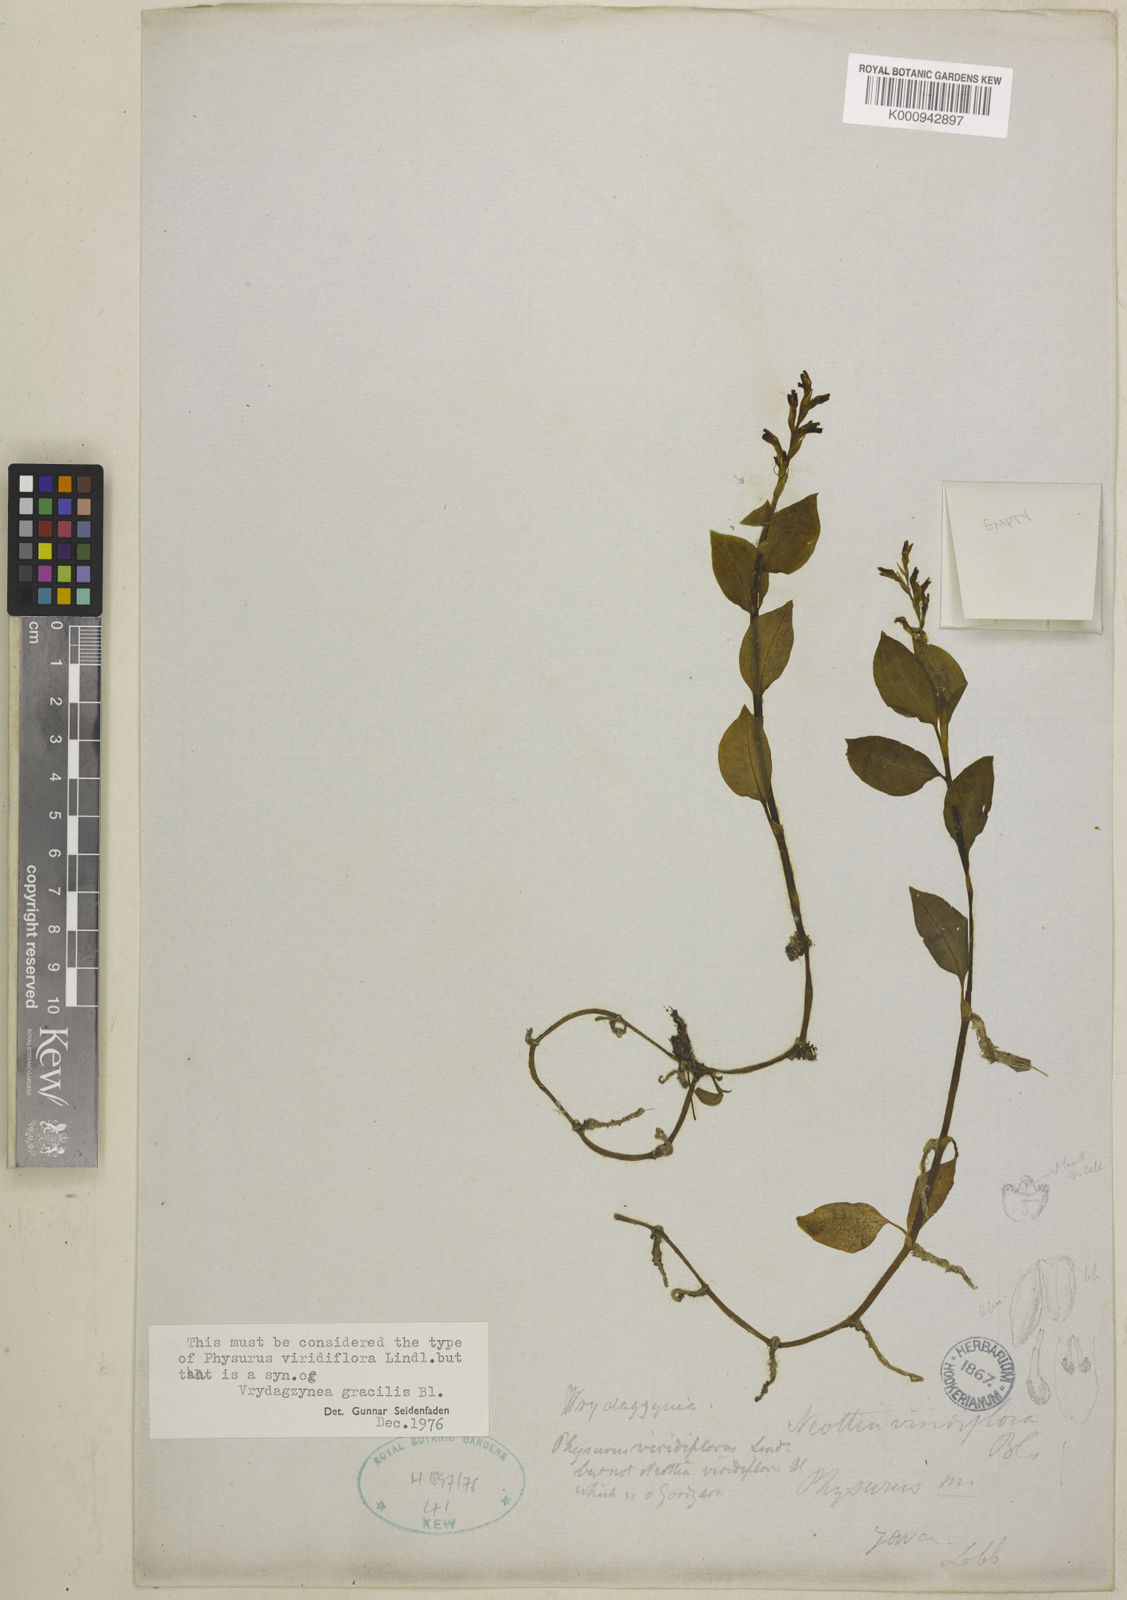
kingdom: Plantae
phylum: Tracheophyta
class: Liliopsida
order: Asparagales
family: Orchidaceae
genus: Vrydagzynea
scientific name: Vrydagzynea gracilis
